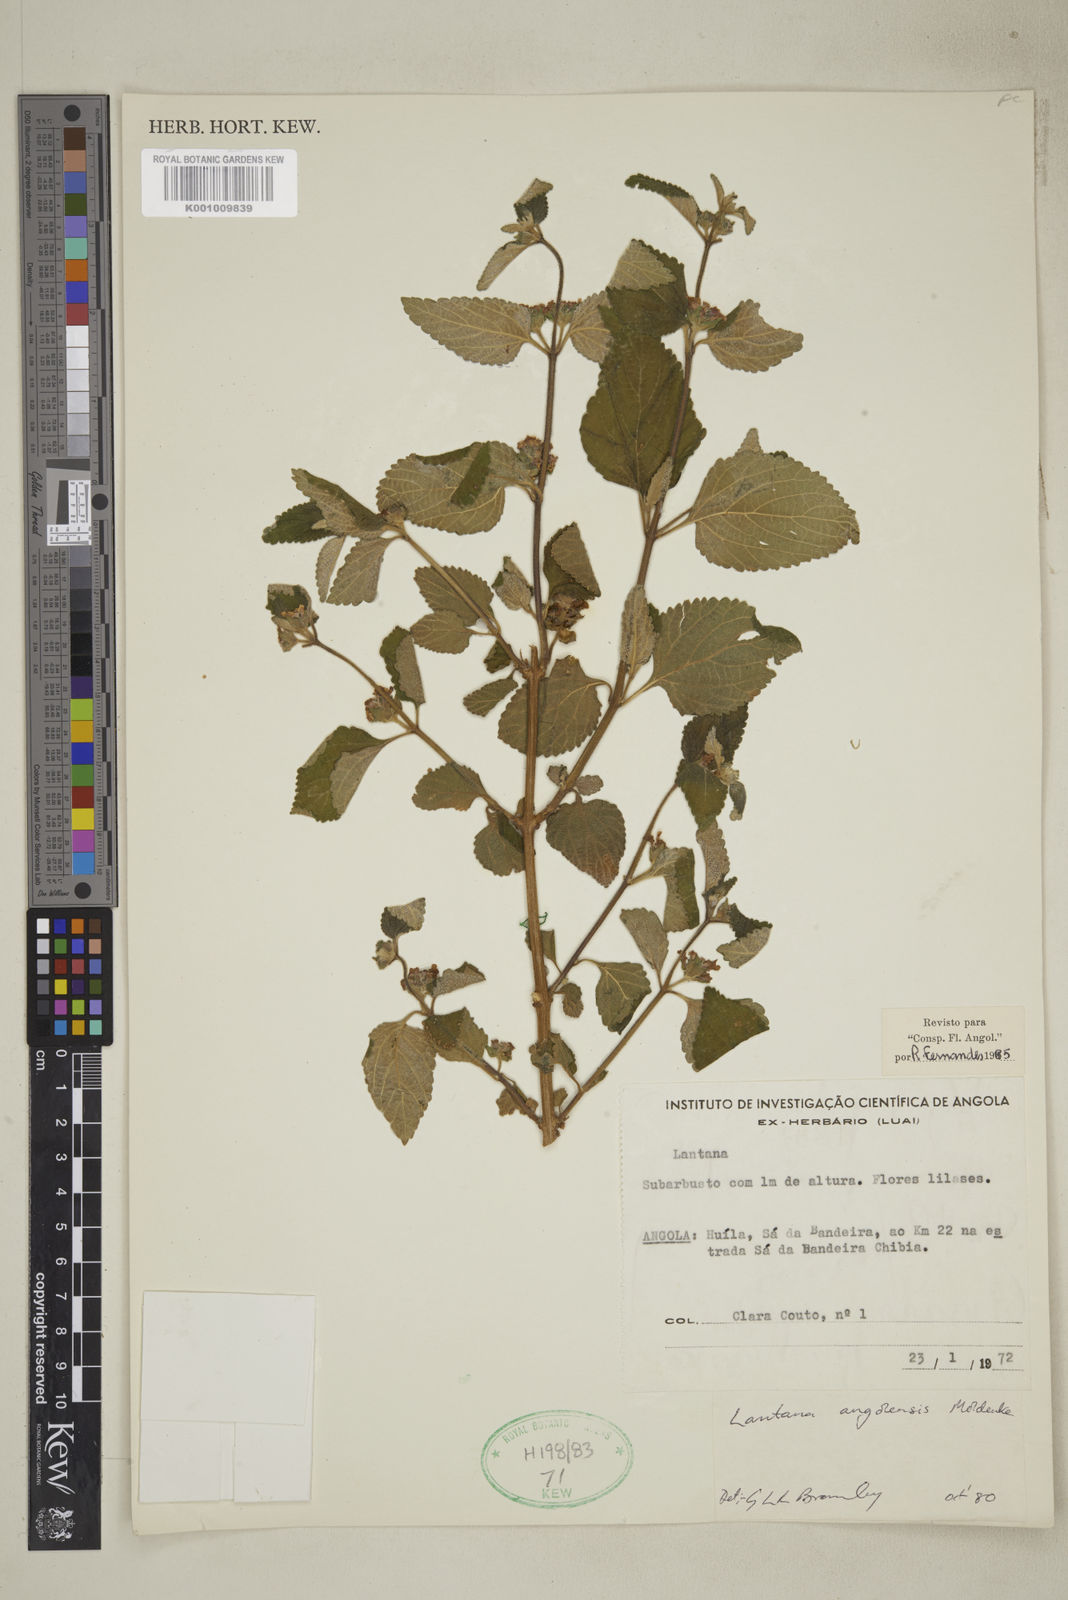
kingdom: Plantae
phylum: Tracheophyta
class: Magnoliopsida
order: Lamiales
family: Verbenaceae
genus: Lantana
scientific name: Lantana angolensis
